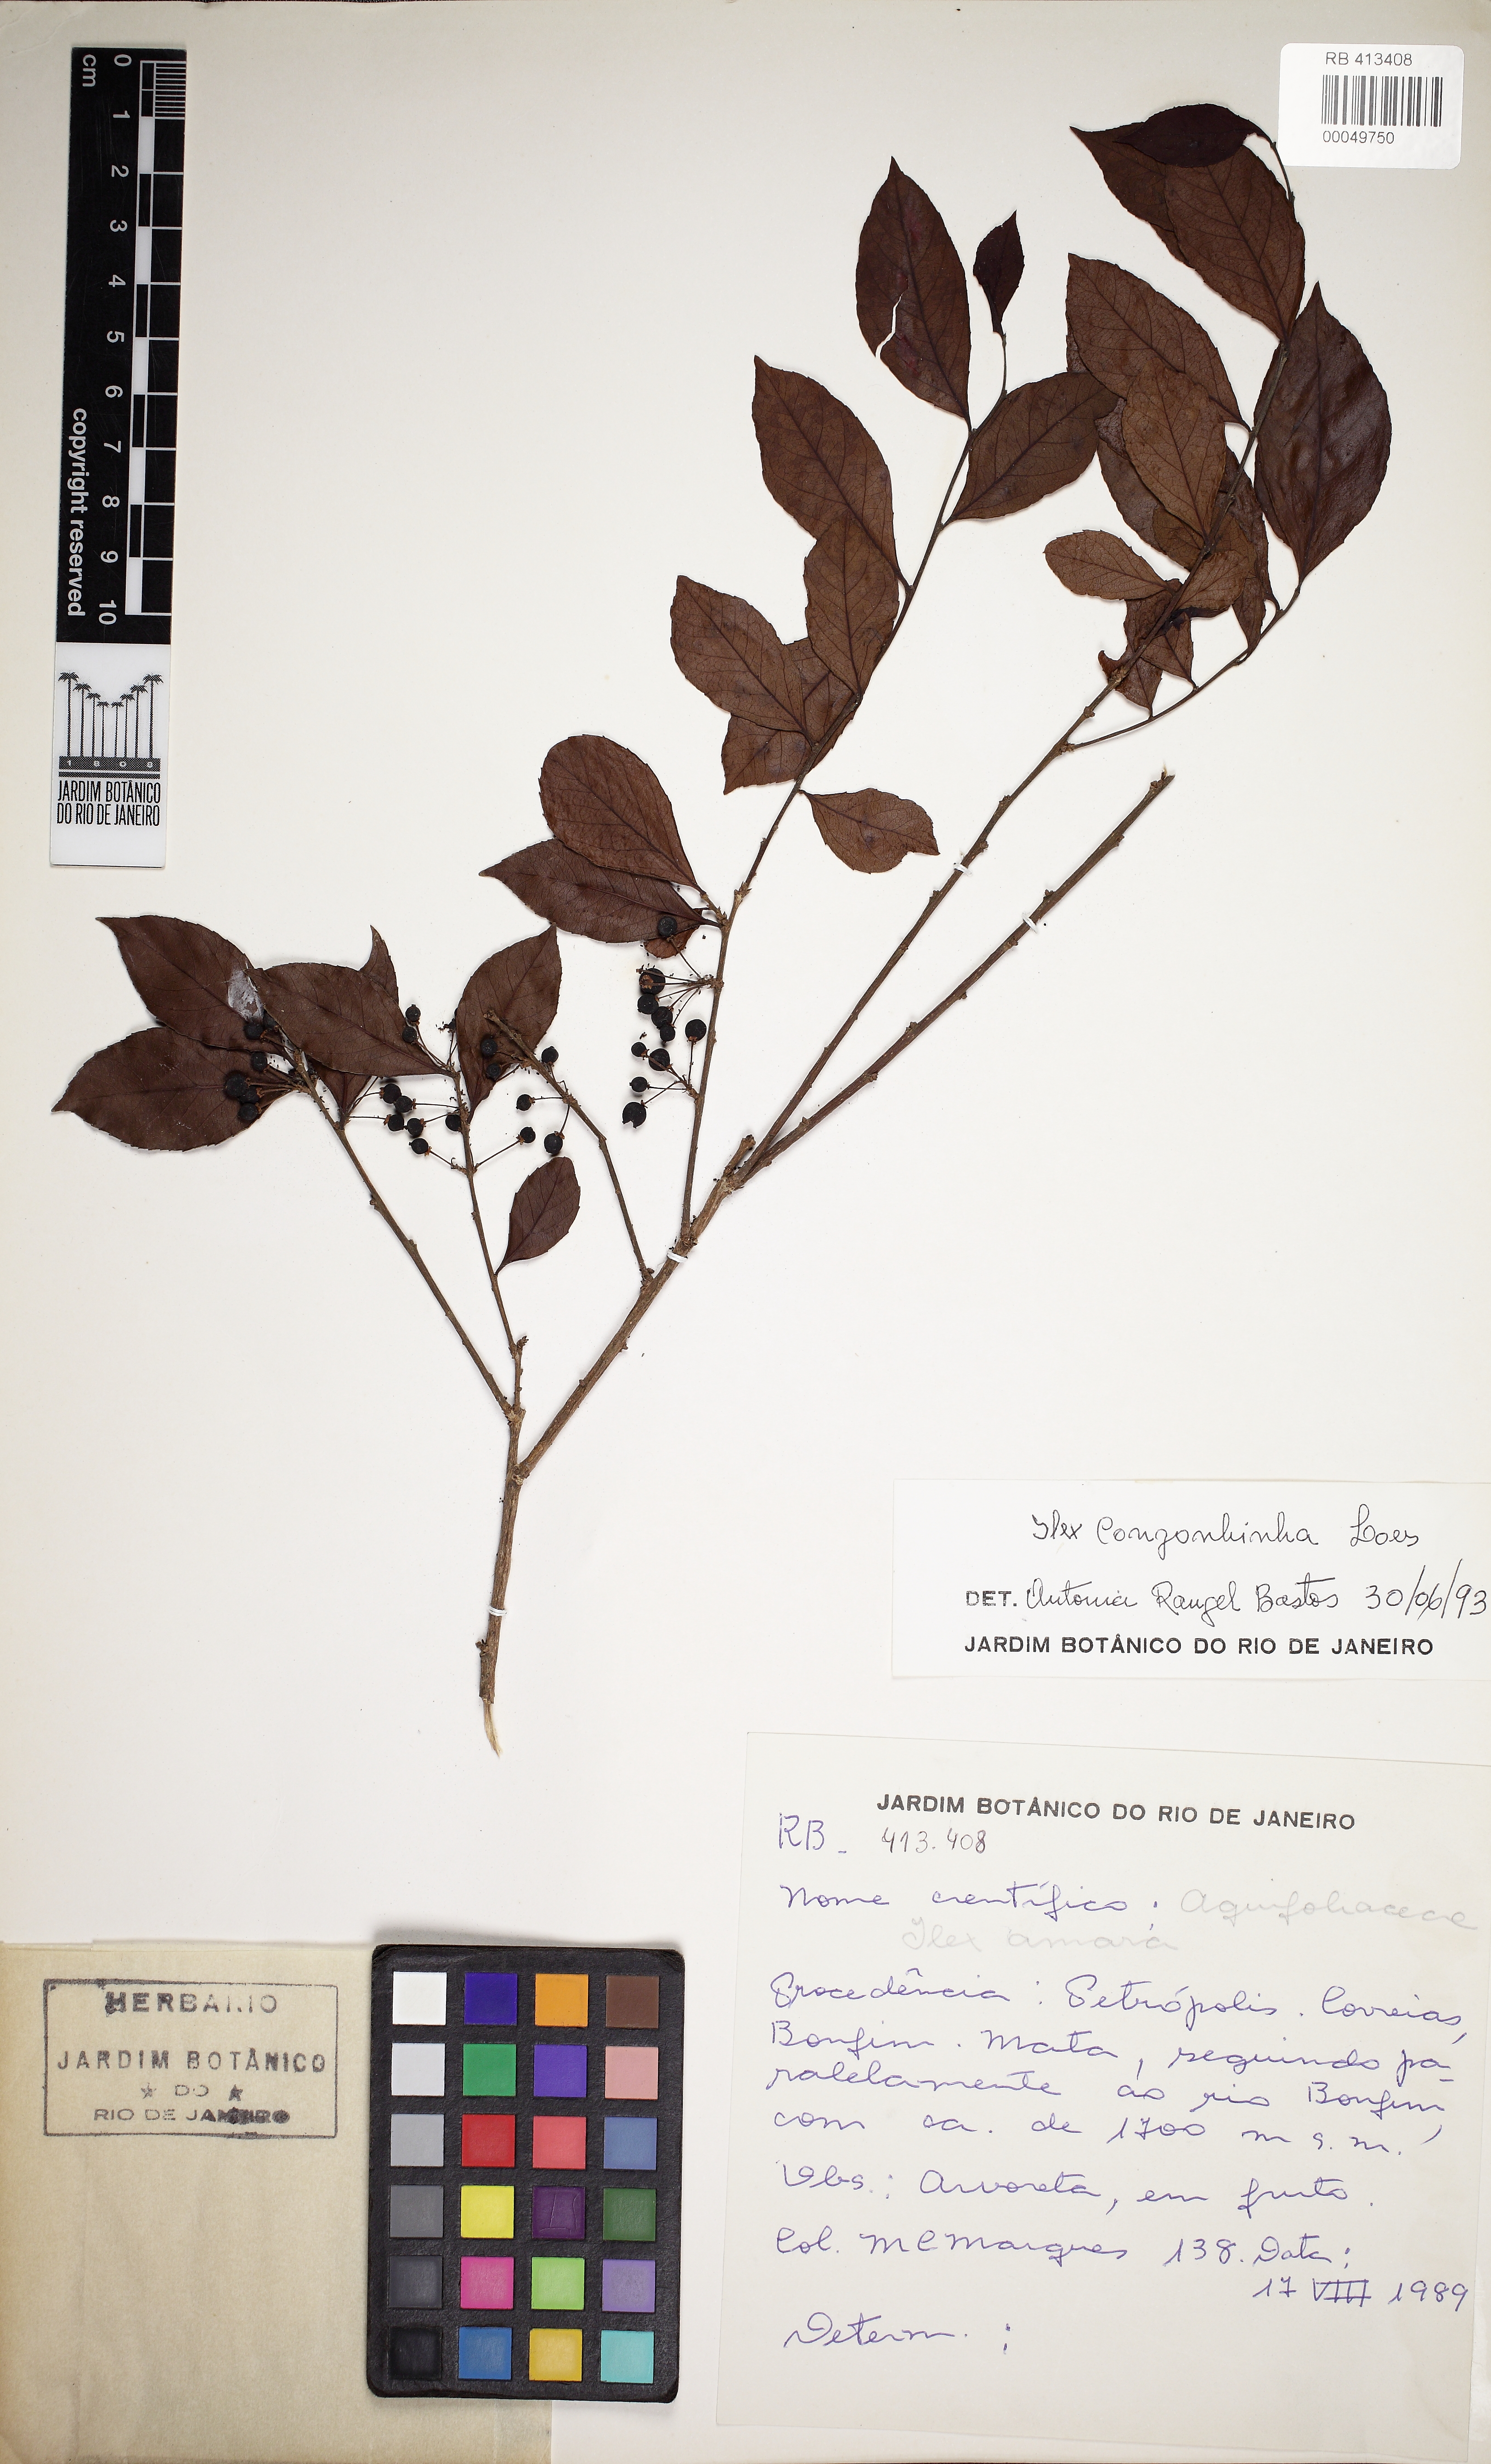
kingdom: Plantae
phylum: Tracheophyta
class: Magnoliopsida
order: Aquifoliales
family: Aquifoliaceae
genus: Ilex
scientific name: Ilex congonhinha
